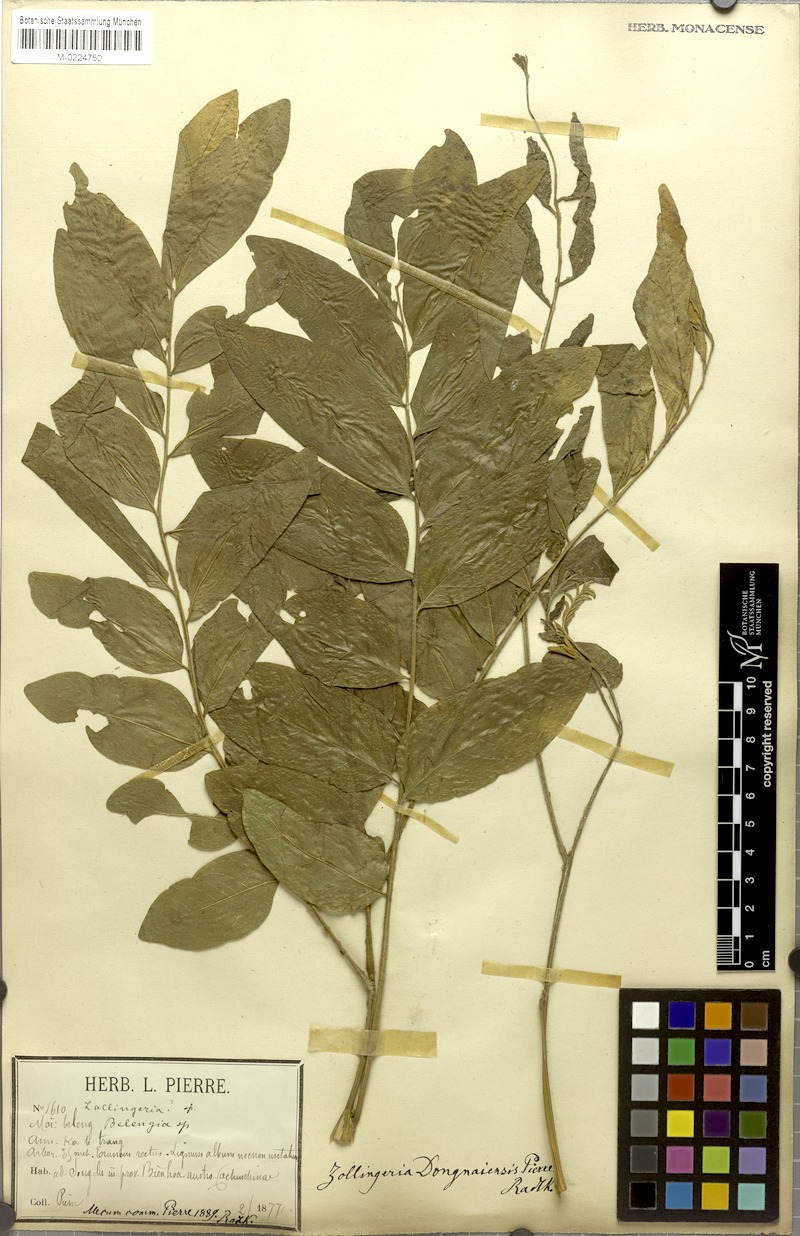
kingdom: Plantae
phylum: Tracheophyta
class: Magnoliopsida
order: Sapindales
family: Sapindaceae
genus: Zollingeria
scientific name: Zollingeria dongnaiensis
